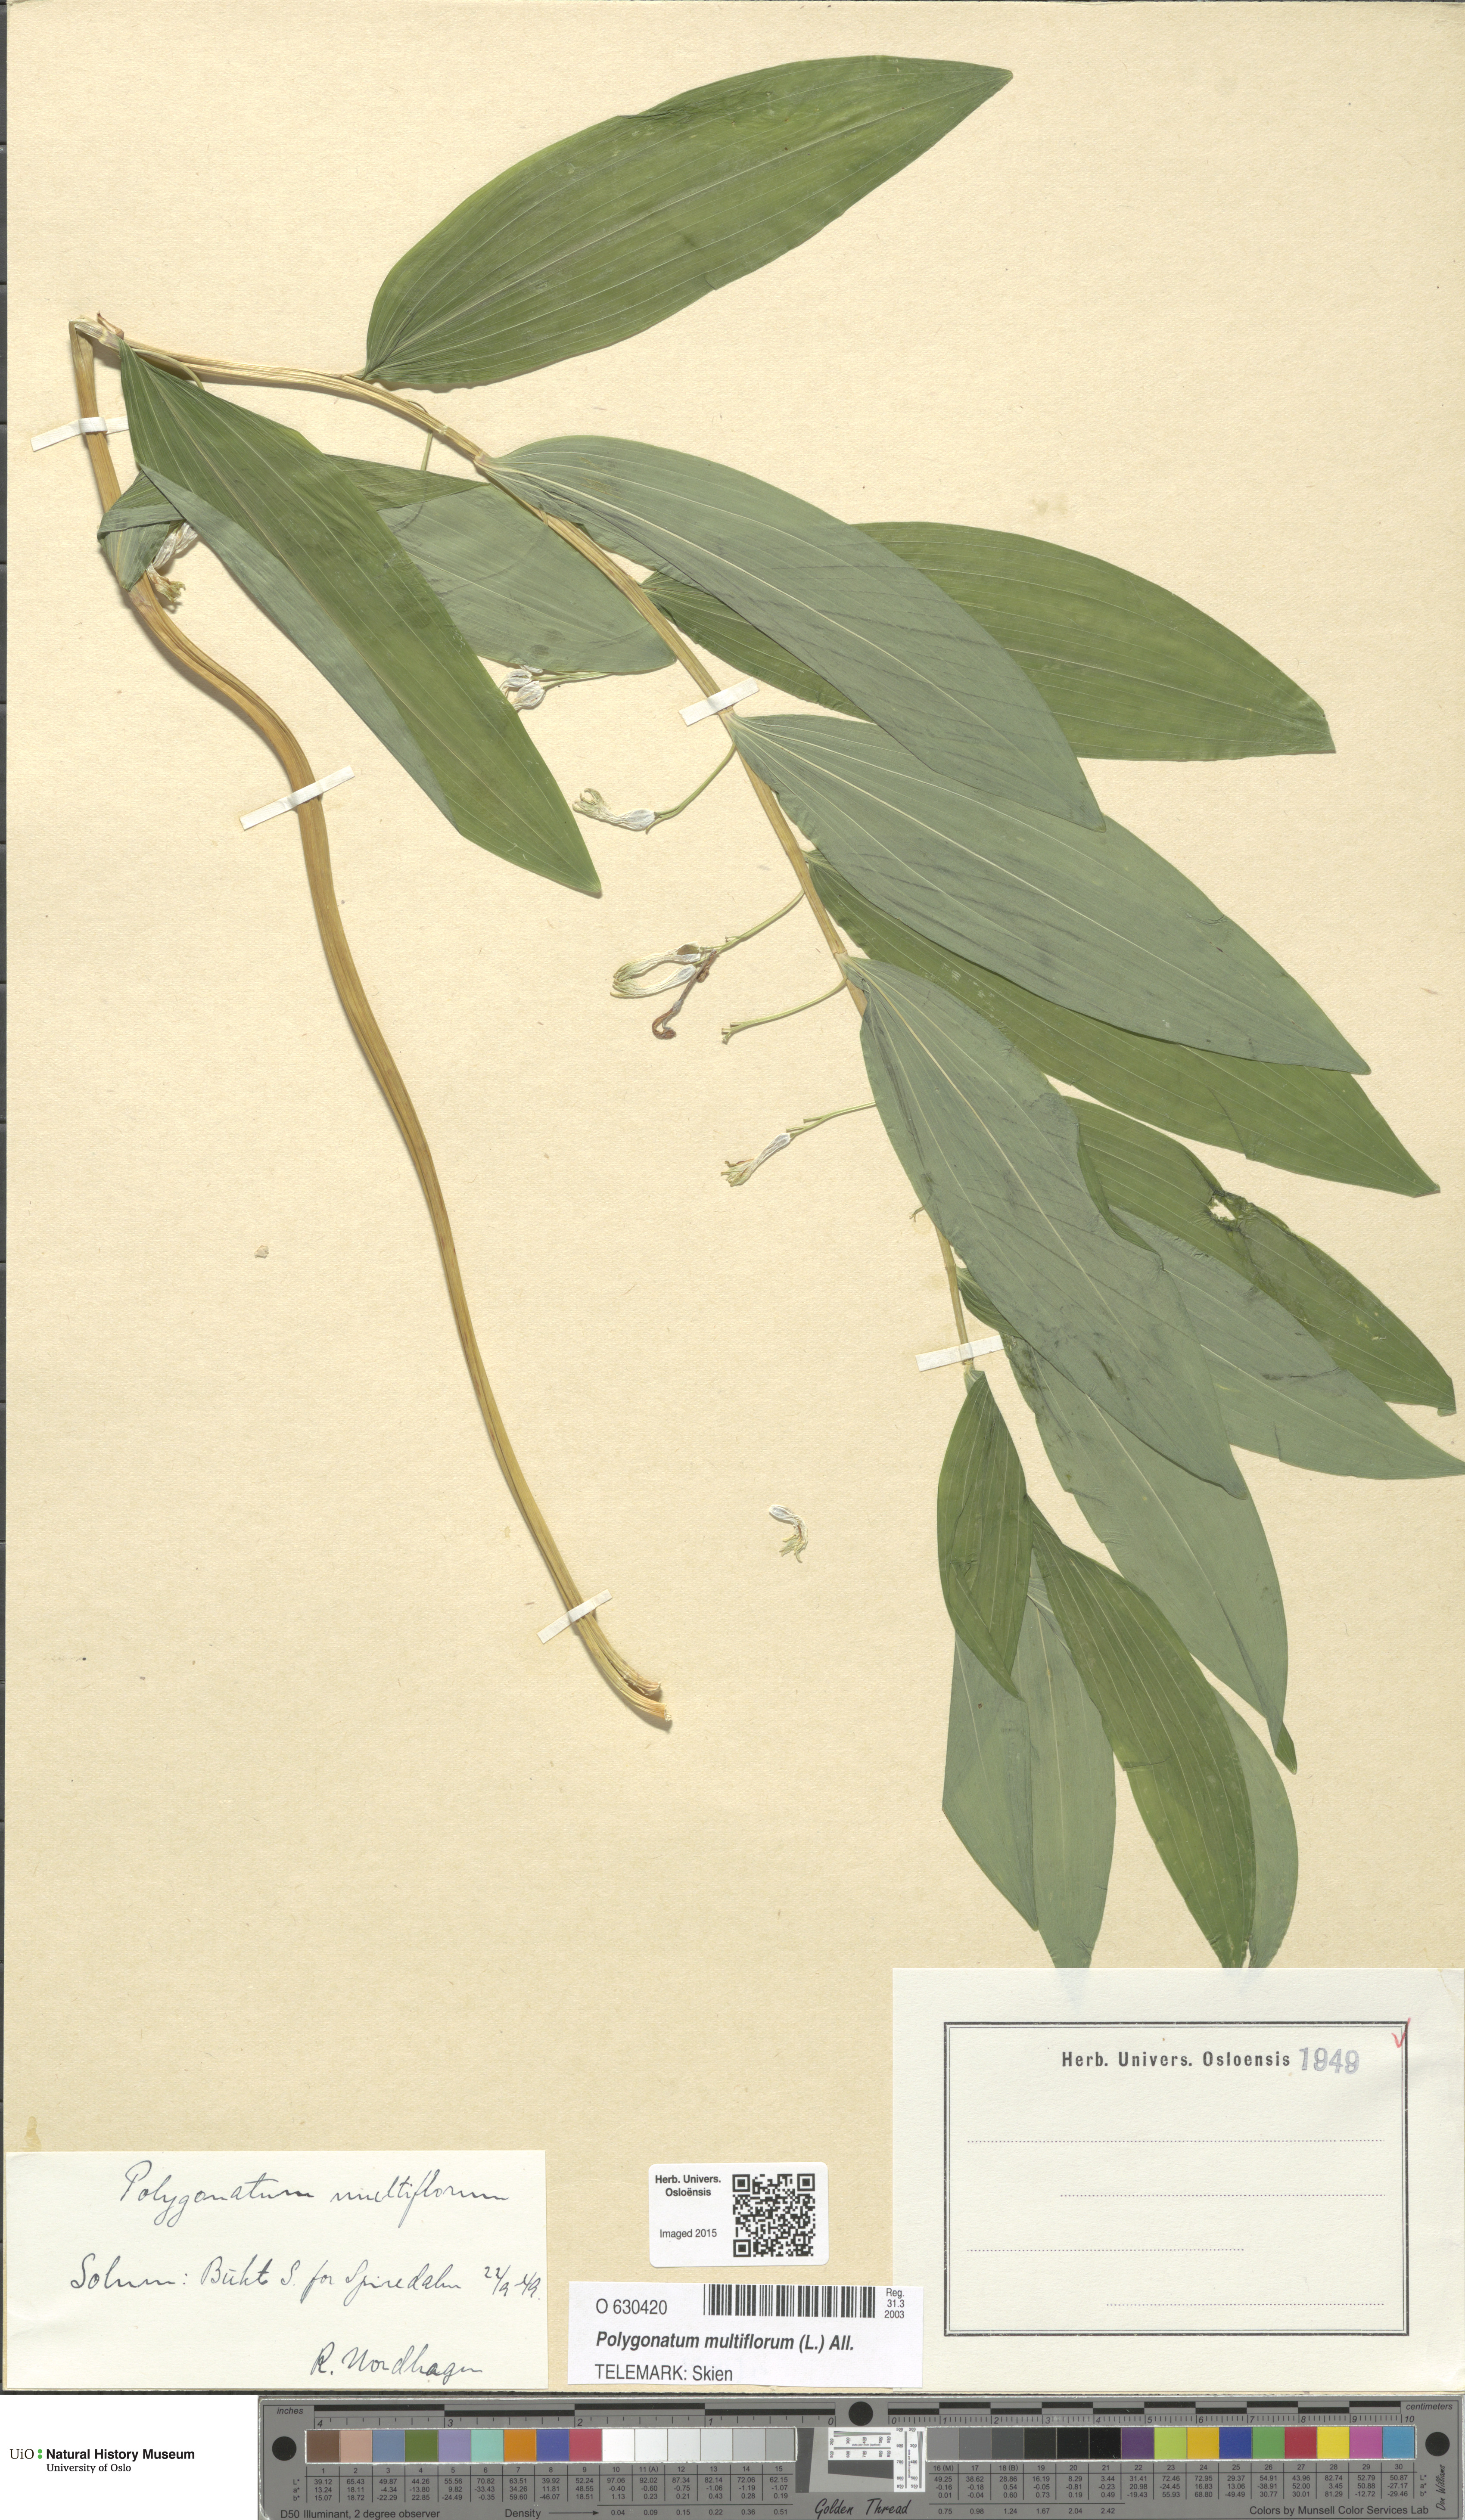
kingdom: Plantae
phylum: Tracheophyta
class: Liliopsida
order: Asparagales
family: Asparagaceae
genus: Polygonatum
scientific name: Polygonatum multiflorum
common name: Solomon's-seal
